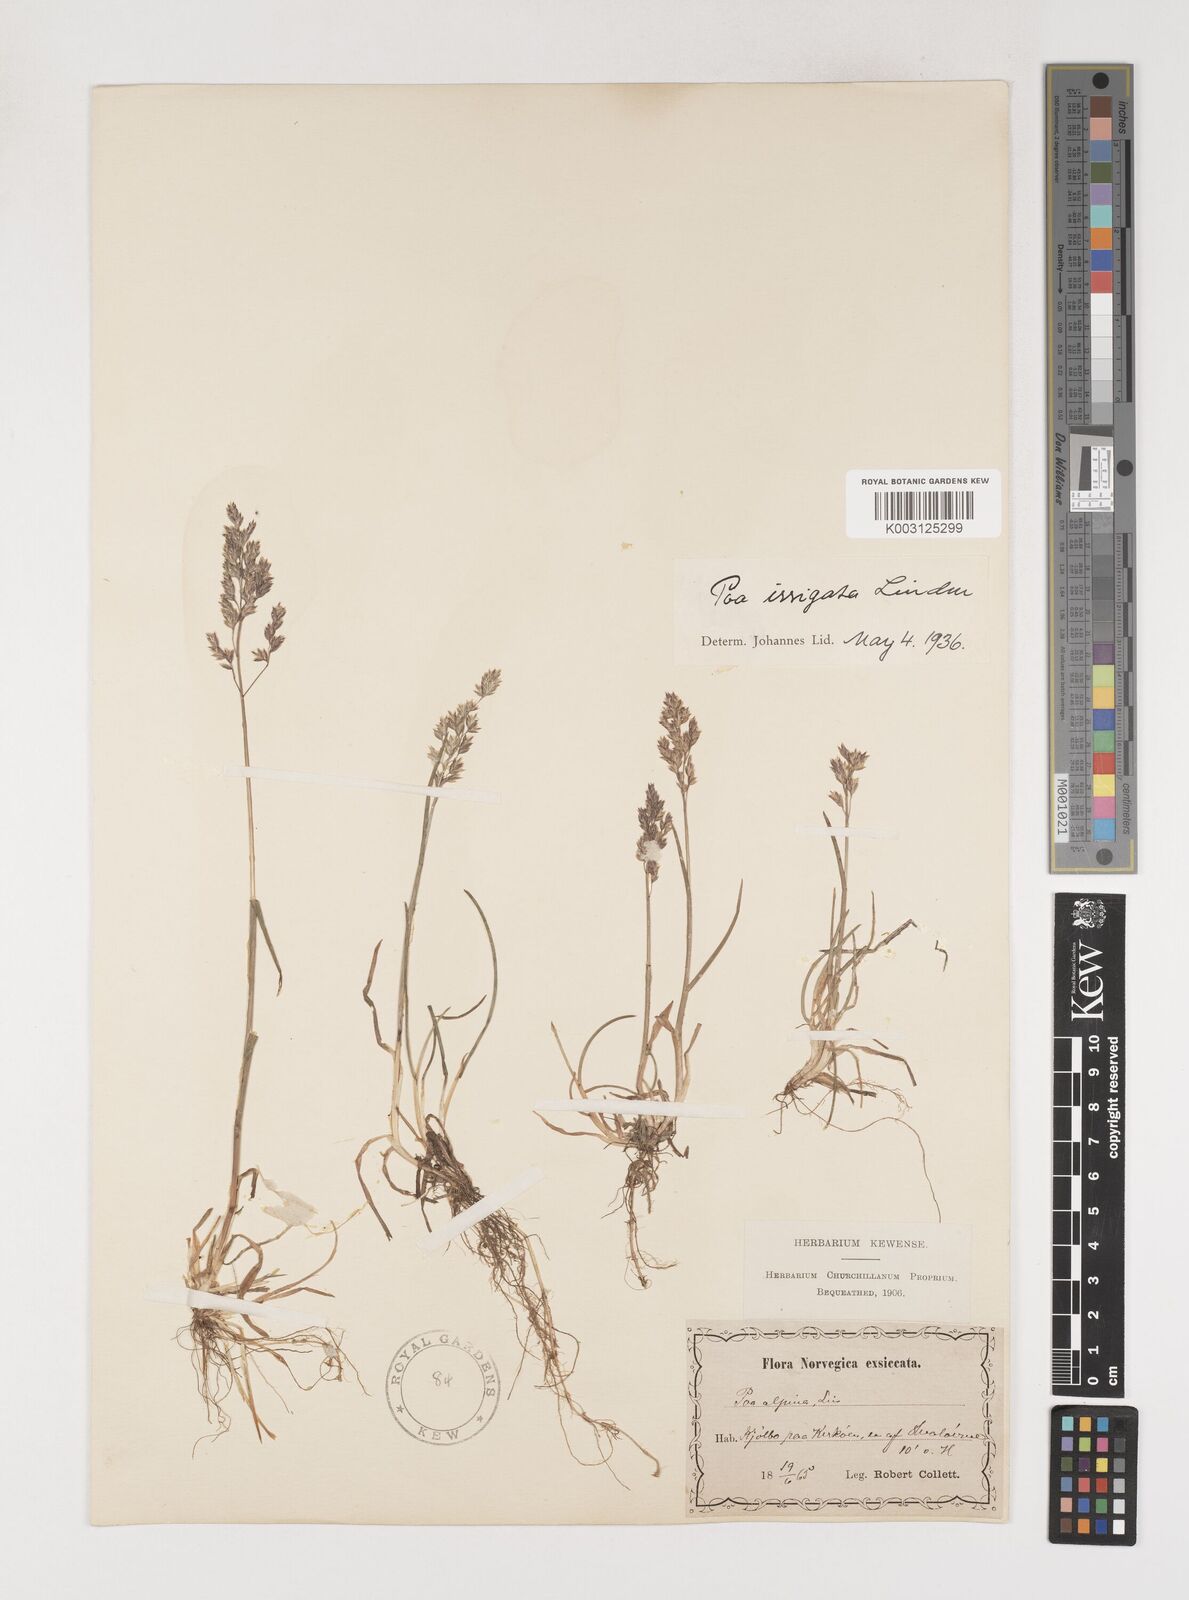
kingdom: Plantae
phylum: Tracheophyta
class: Liliopsida
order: Poales
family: Poaceae
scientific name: Poaceae
